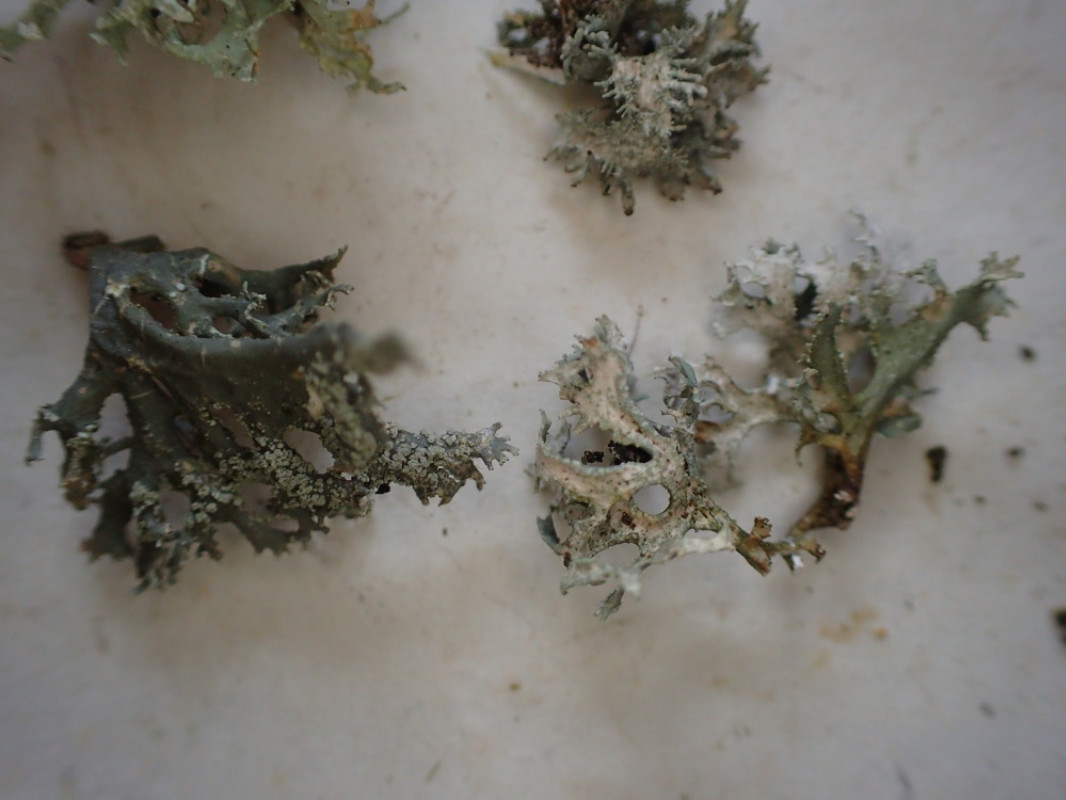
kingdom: Fungi
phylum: Ascomycota
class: Lecanoromycetes
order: Lecanorales
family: Parmeliaceae
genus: Evernia
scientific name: Evernia prunastri
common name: almindelig slåenlav
